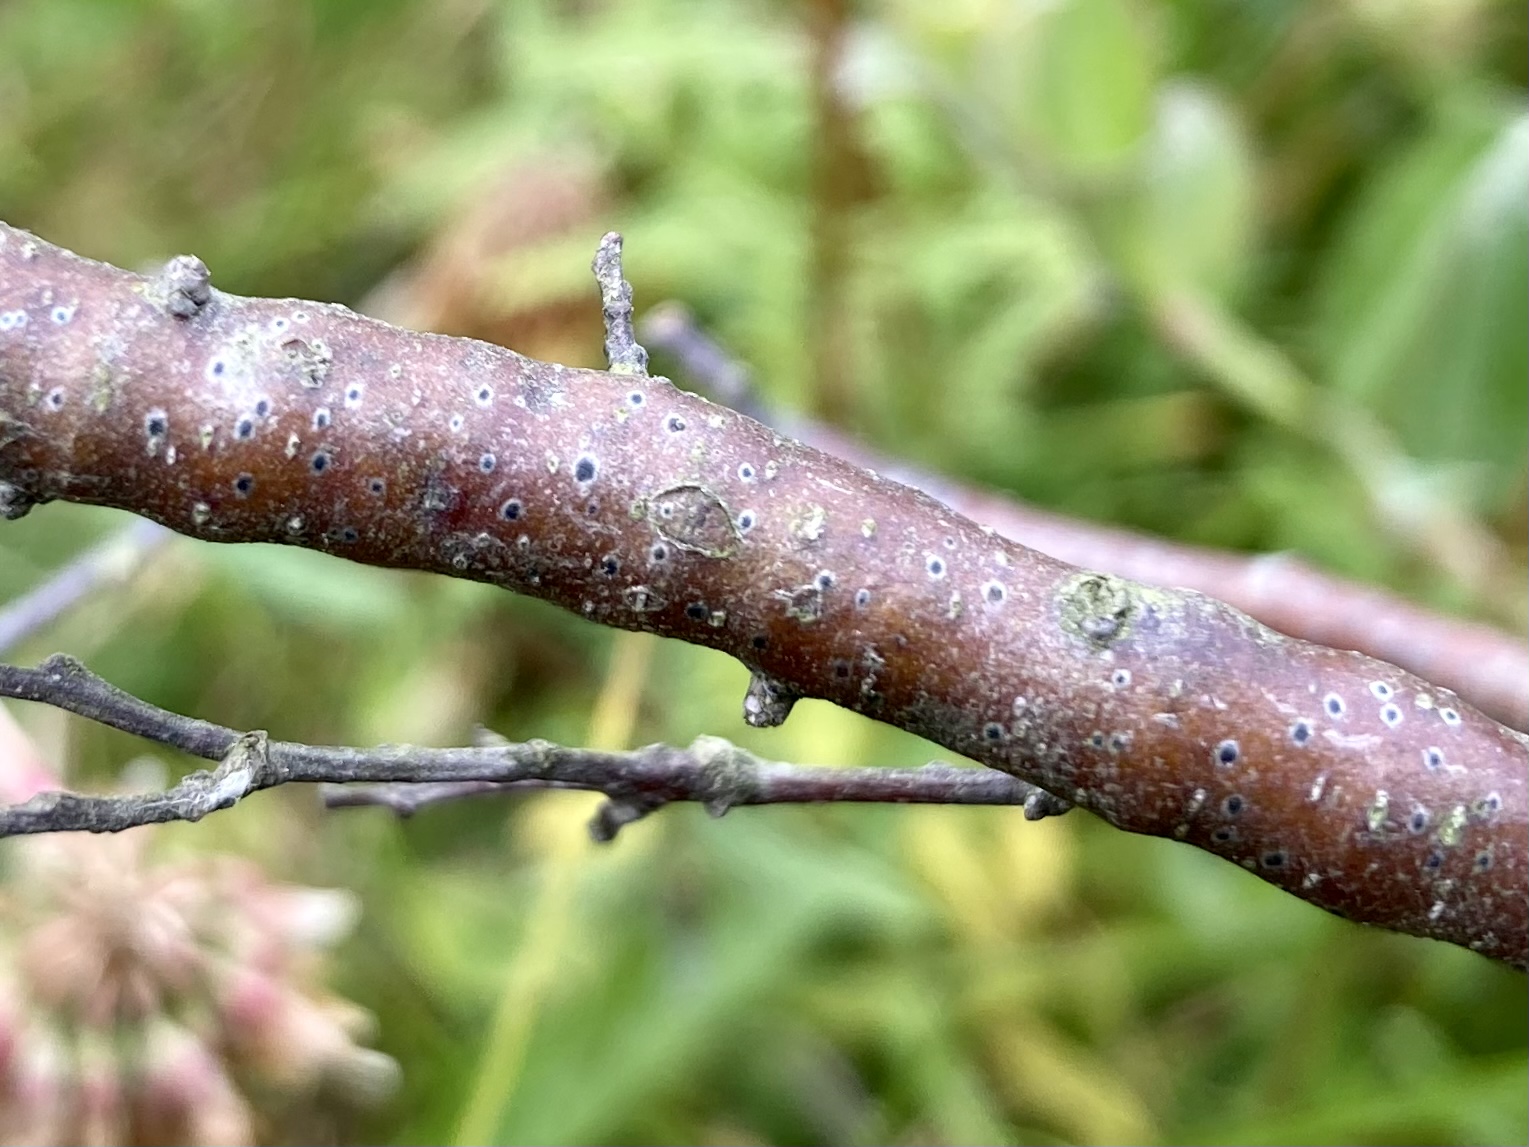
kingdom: Fungi
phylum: Ascomycota
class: Dothideomycetes
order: Dothideales
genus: Mycoglaena
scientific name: Mycoglaena myricae
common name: liden porsprik
